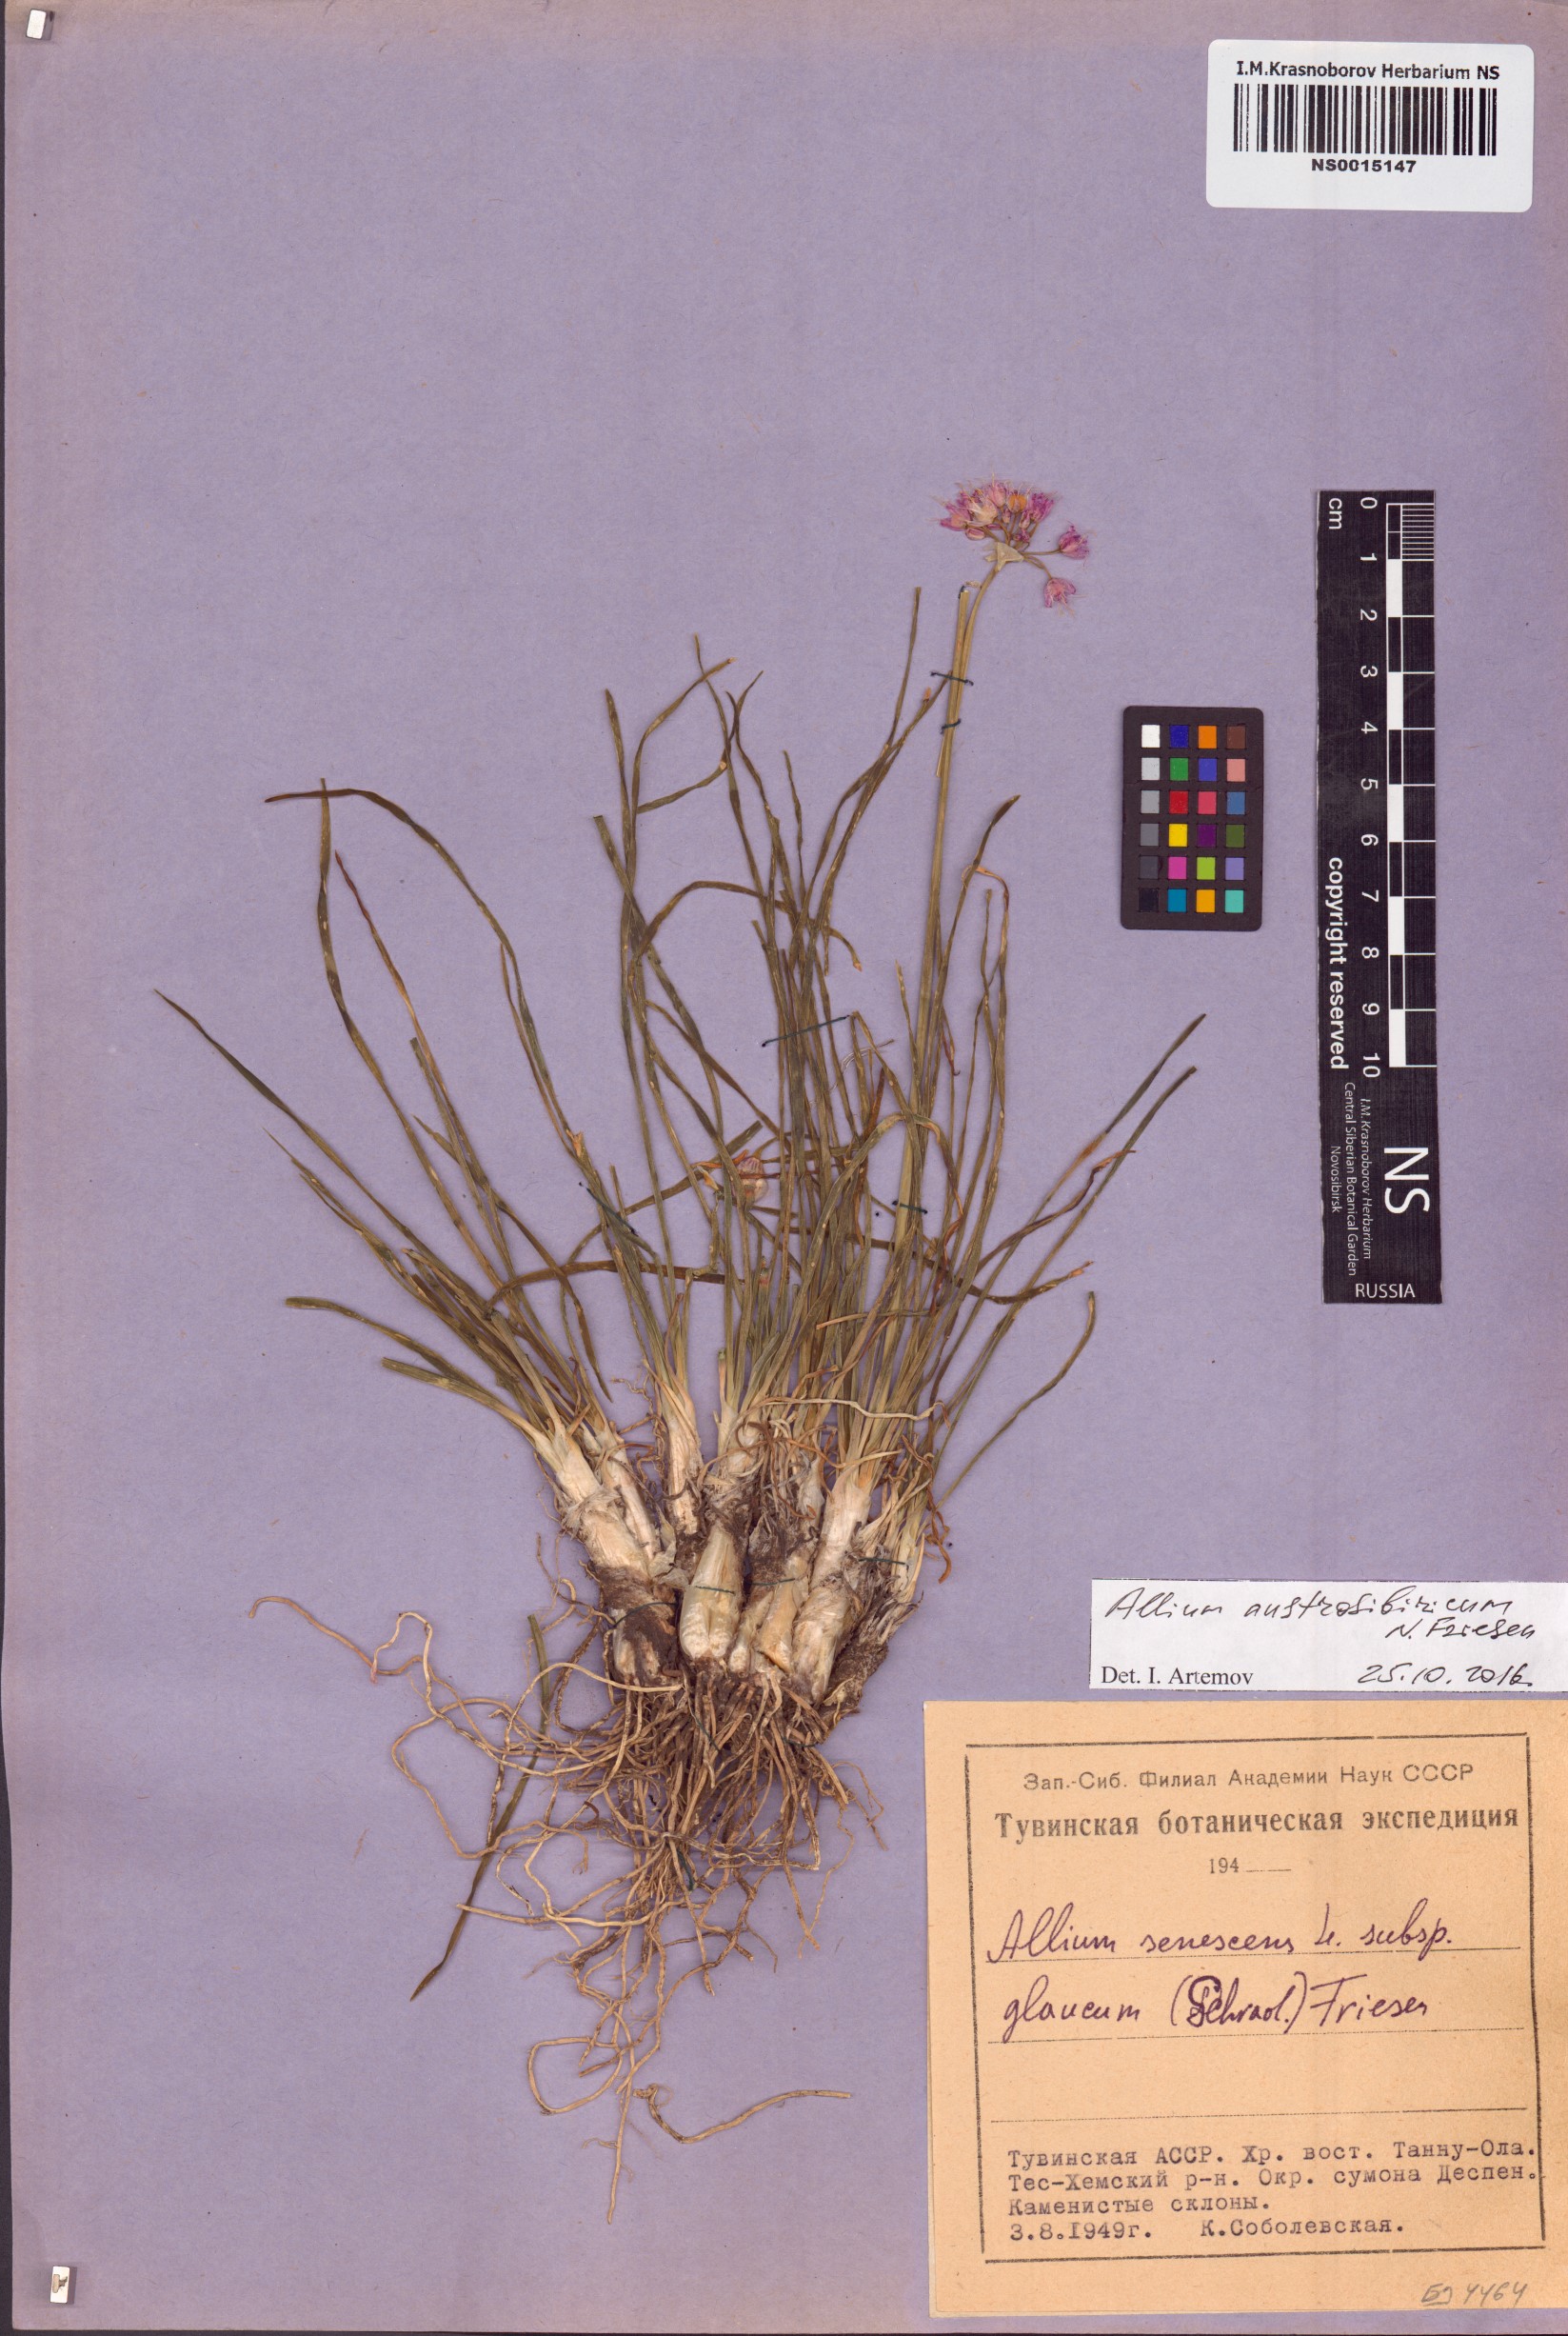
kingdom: Plantae
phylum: Tracheophyta
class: Liliopsida
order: Asparagales
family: Amaryllidaceae
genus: Allium
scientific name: Allium austrosibiricum
